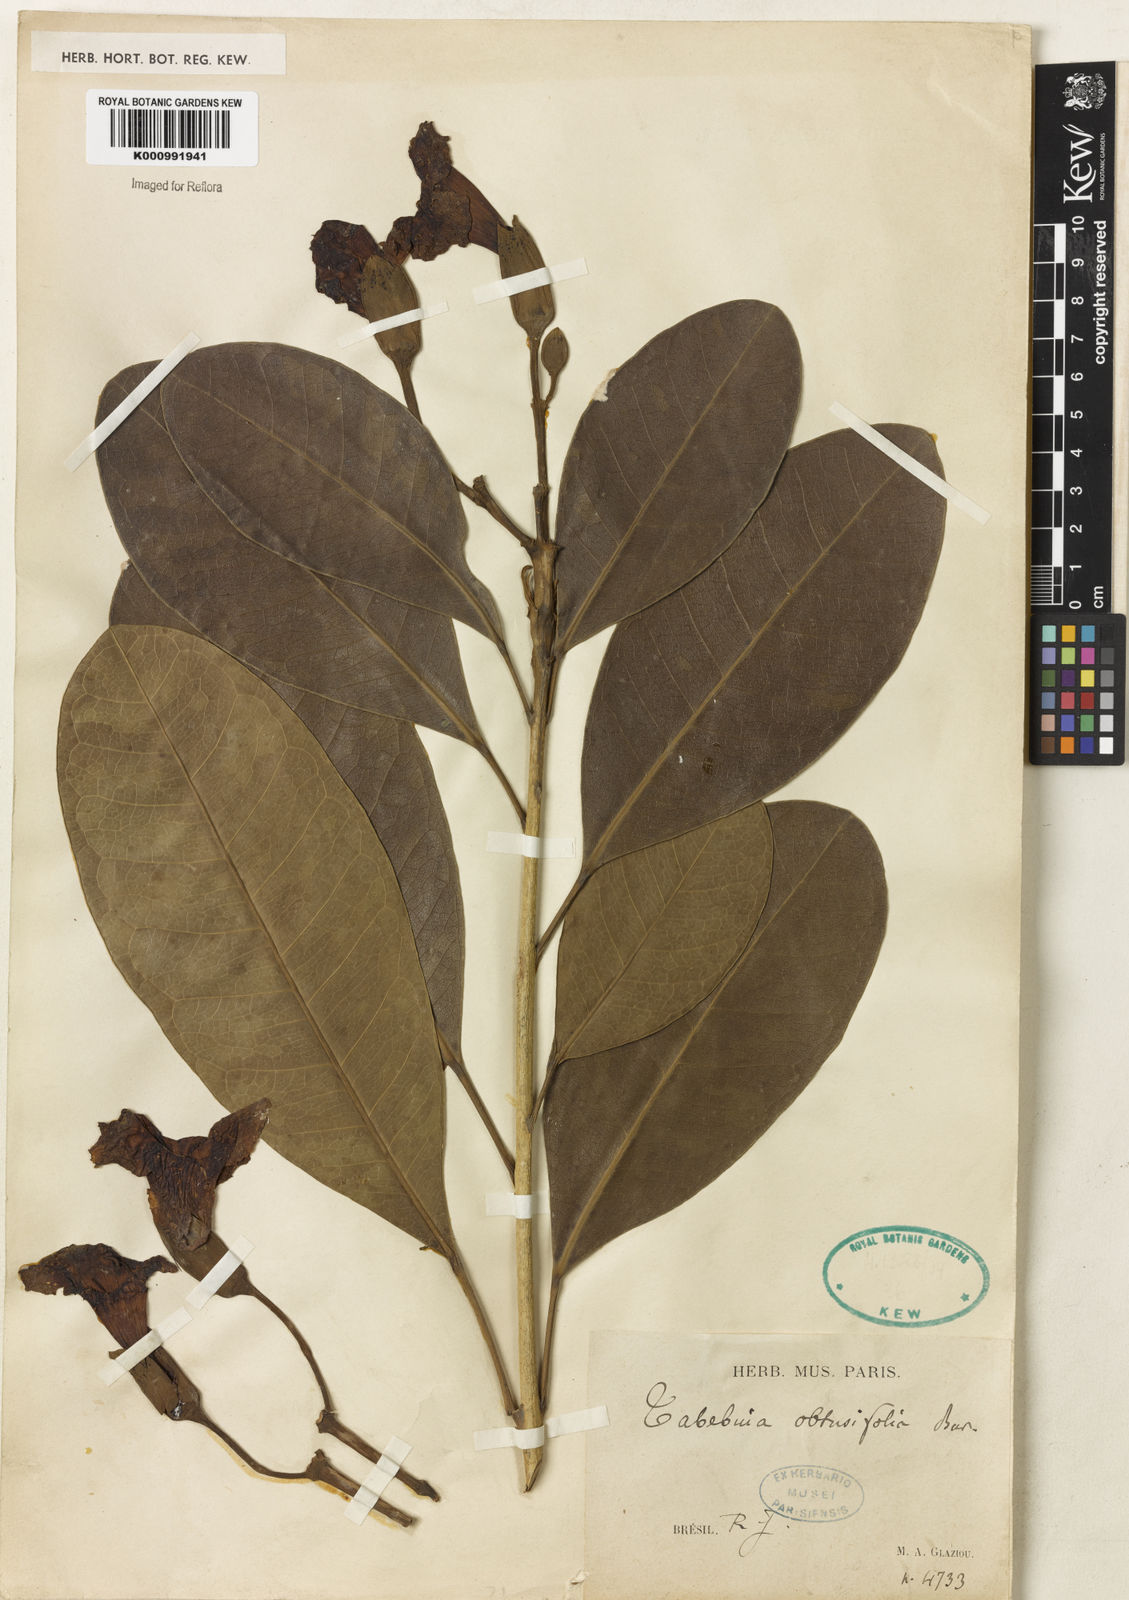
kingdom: Plantae
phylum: Tracheophyta
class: Magnoliopsida
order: Lamiales
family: Bignoniaceae
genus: Tabebuia
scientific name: Tabebuia obtusifolia
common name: Guadeloupe trumpet-tree
